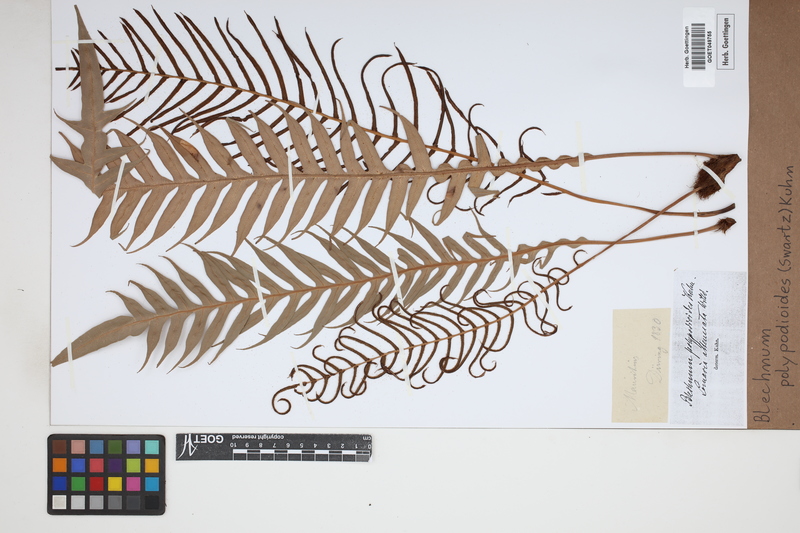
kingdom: Plantae
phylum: Tracheophyta
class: Polypodiopsida
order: Polypodiales
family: Blechnaceae
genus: Lomaridium
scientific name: Lomaridium fragile
